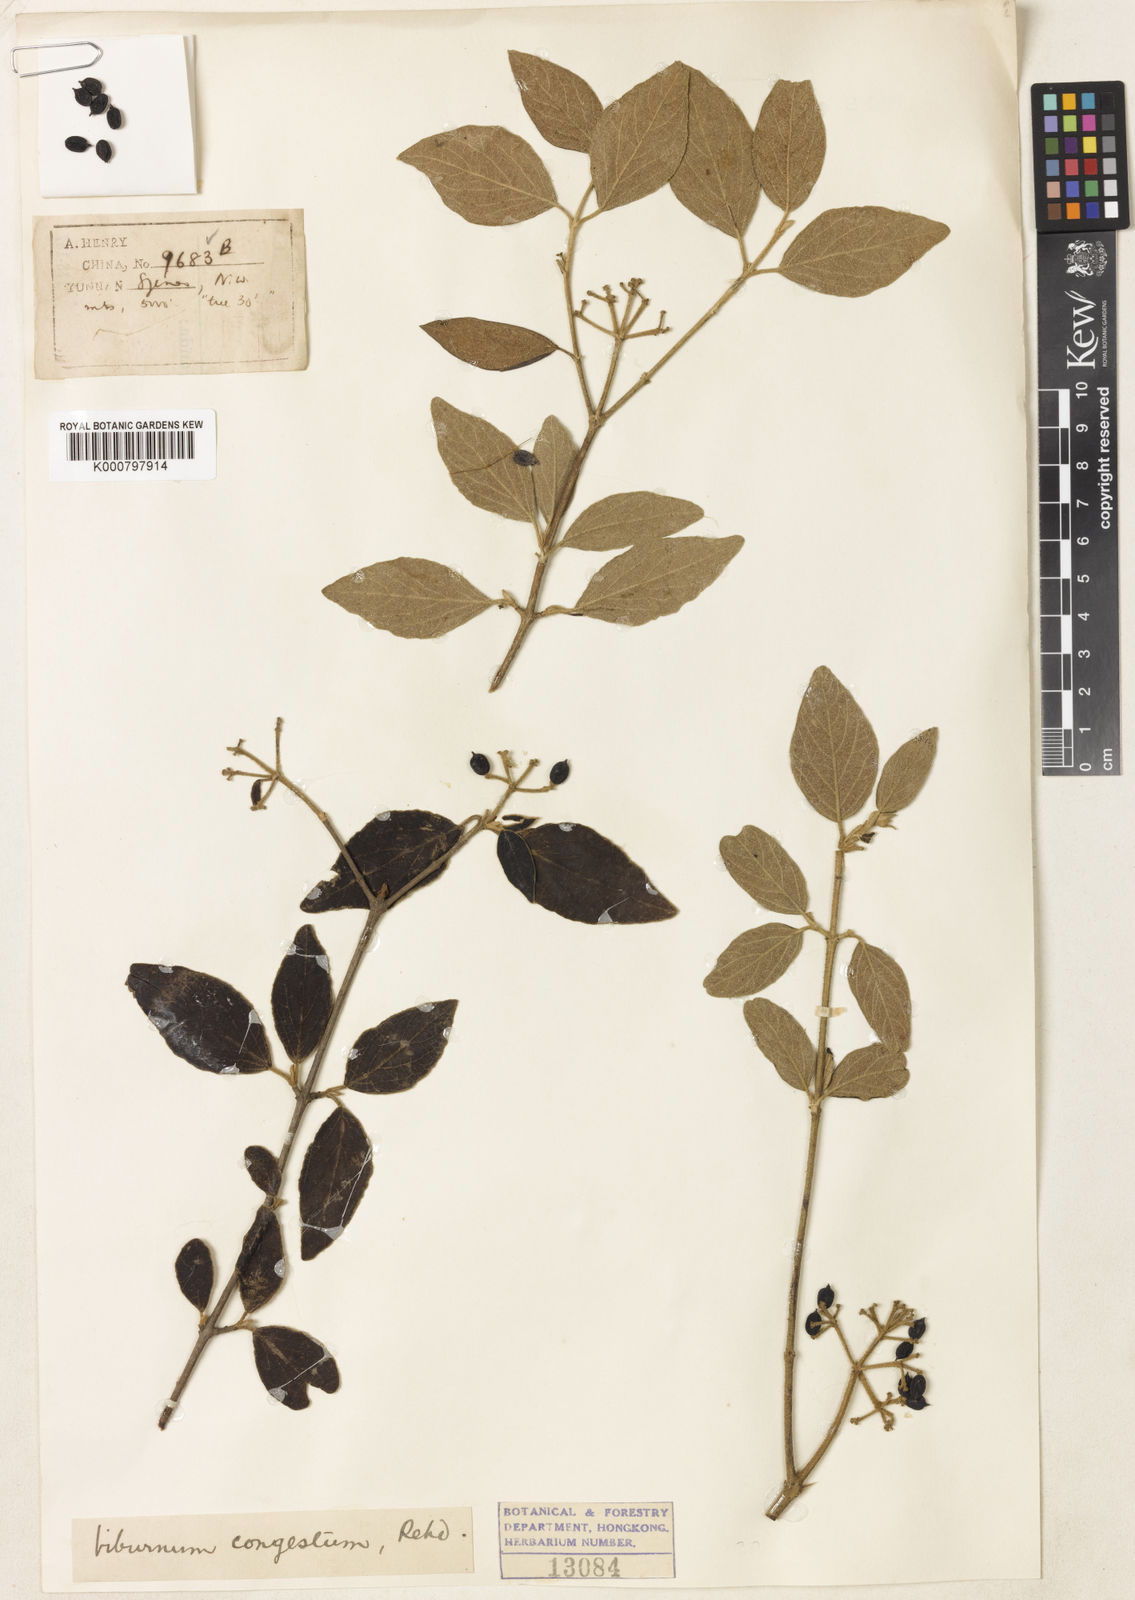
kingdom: Plantae
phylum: Tracheophyta
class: Magnoliopsida
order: Dipsacales
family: Viburnaceae
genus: Viburnum
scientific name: Viburnum congestum
